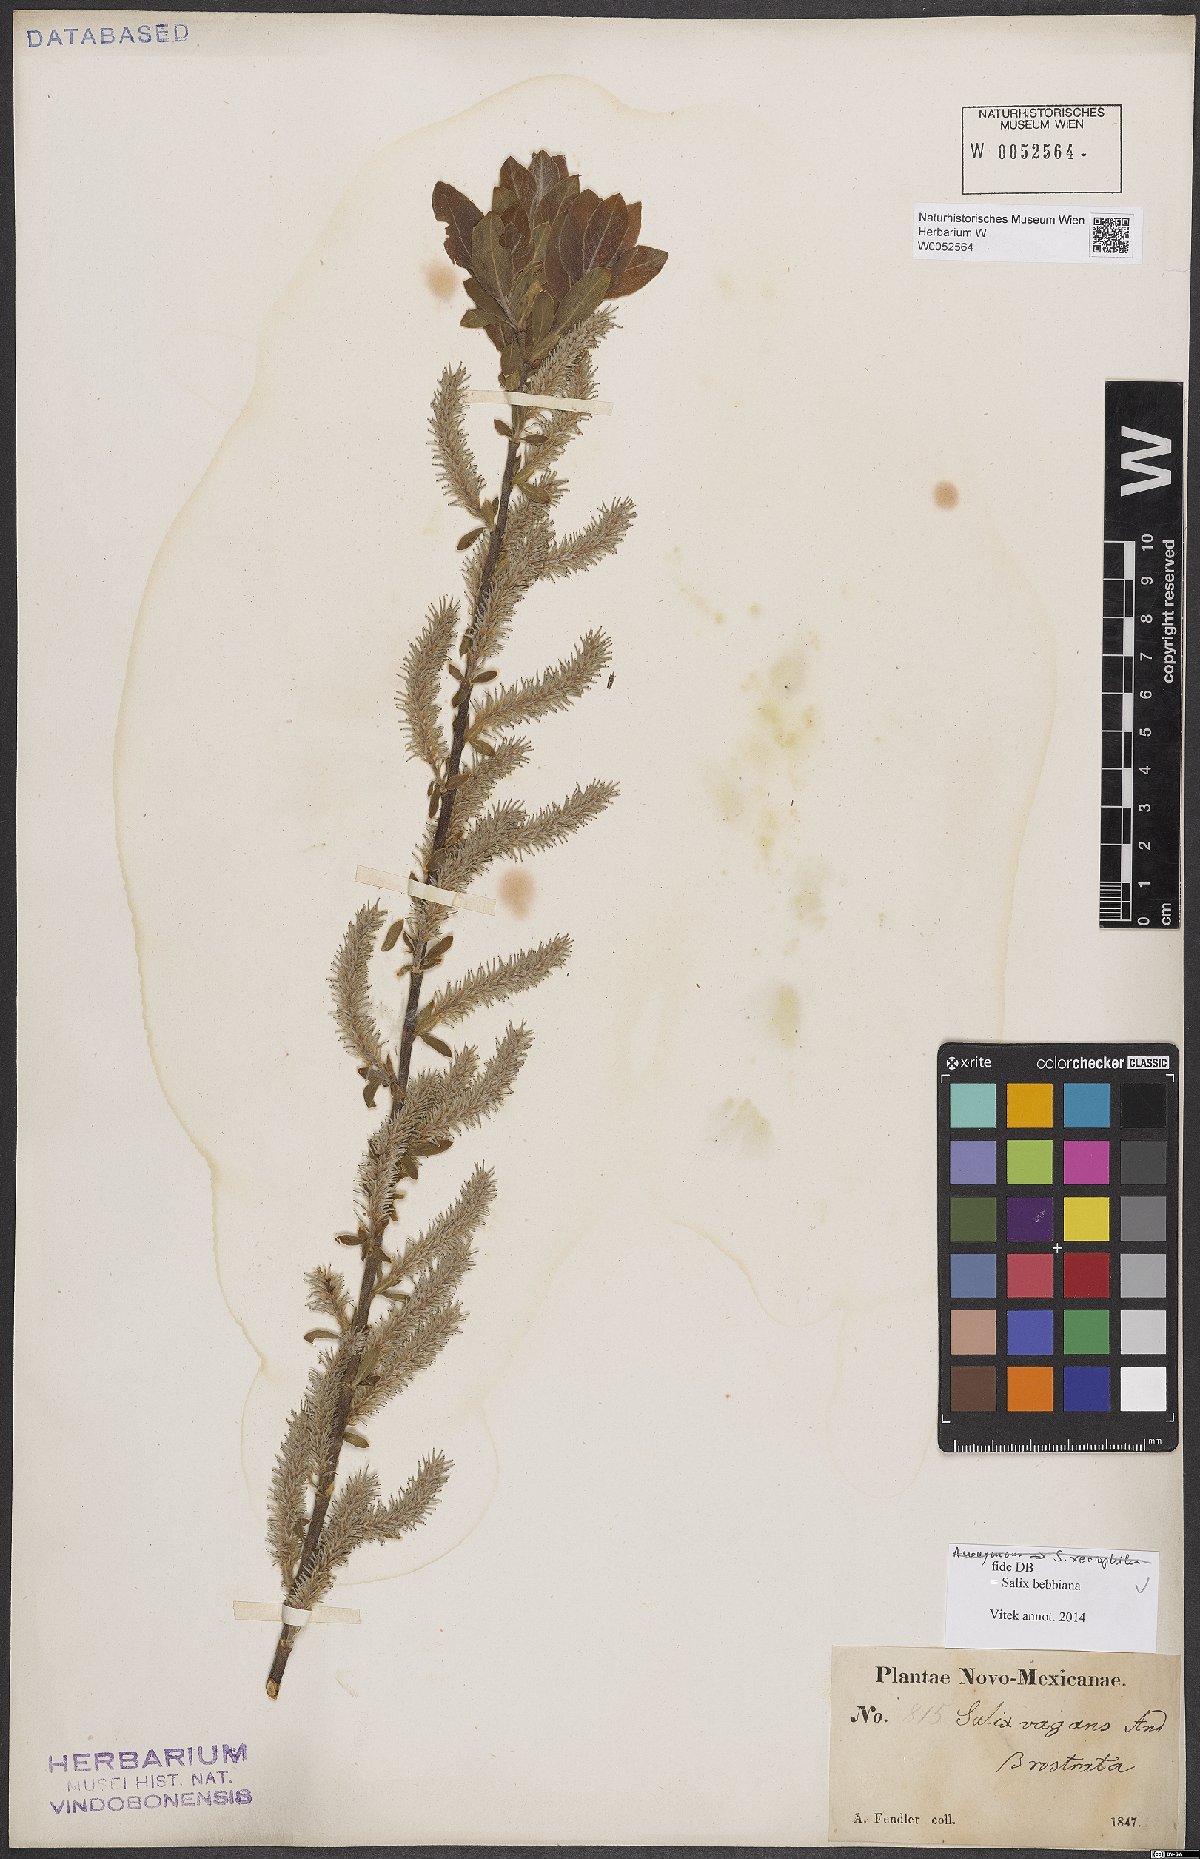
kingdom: Plantae
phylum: Tracheophyta
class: Magnoliopsida
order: Malpighiales
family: Salicaceae
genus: Salix
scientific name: Salix bebbiana
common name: Bebb's willow
